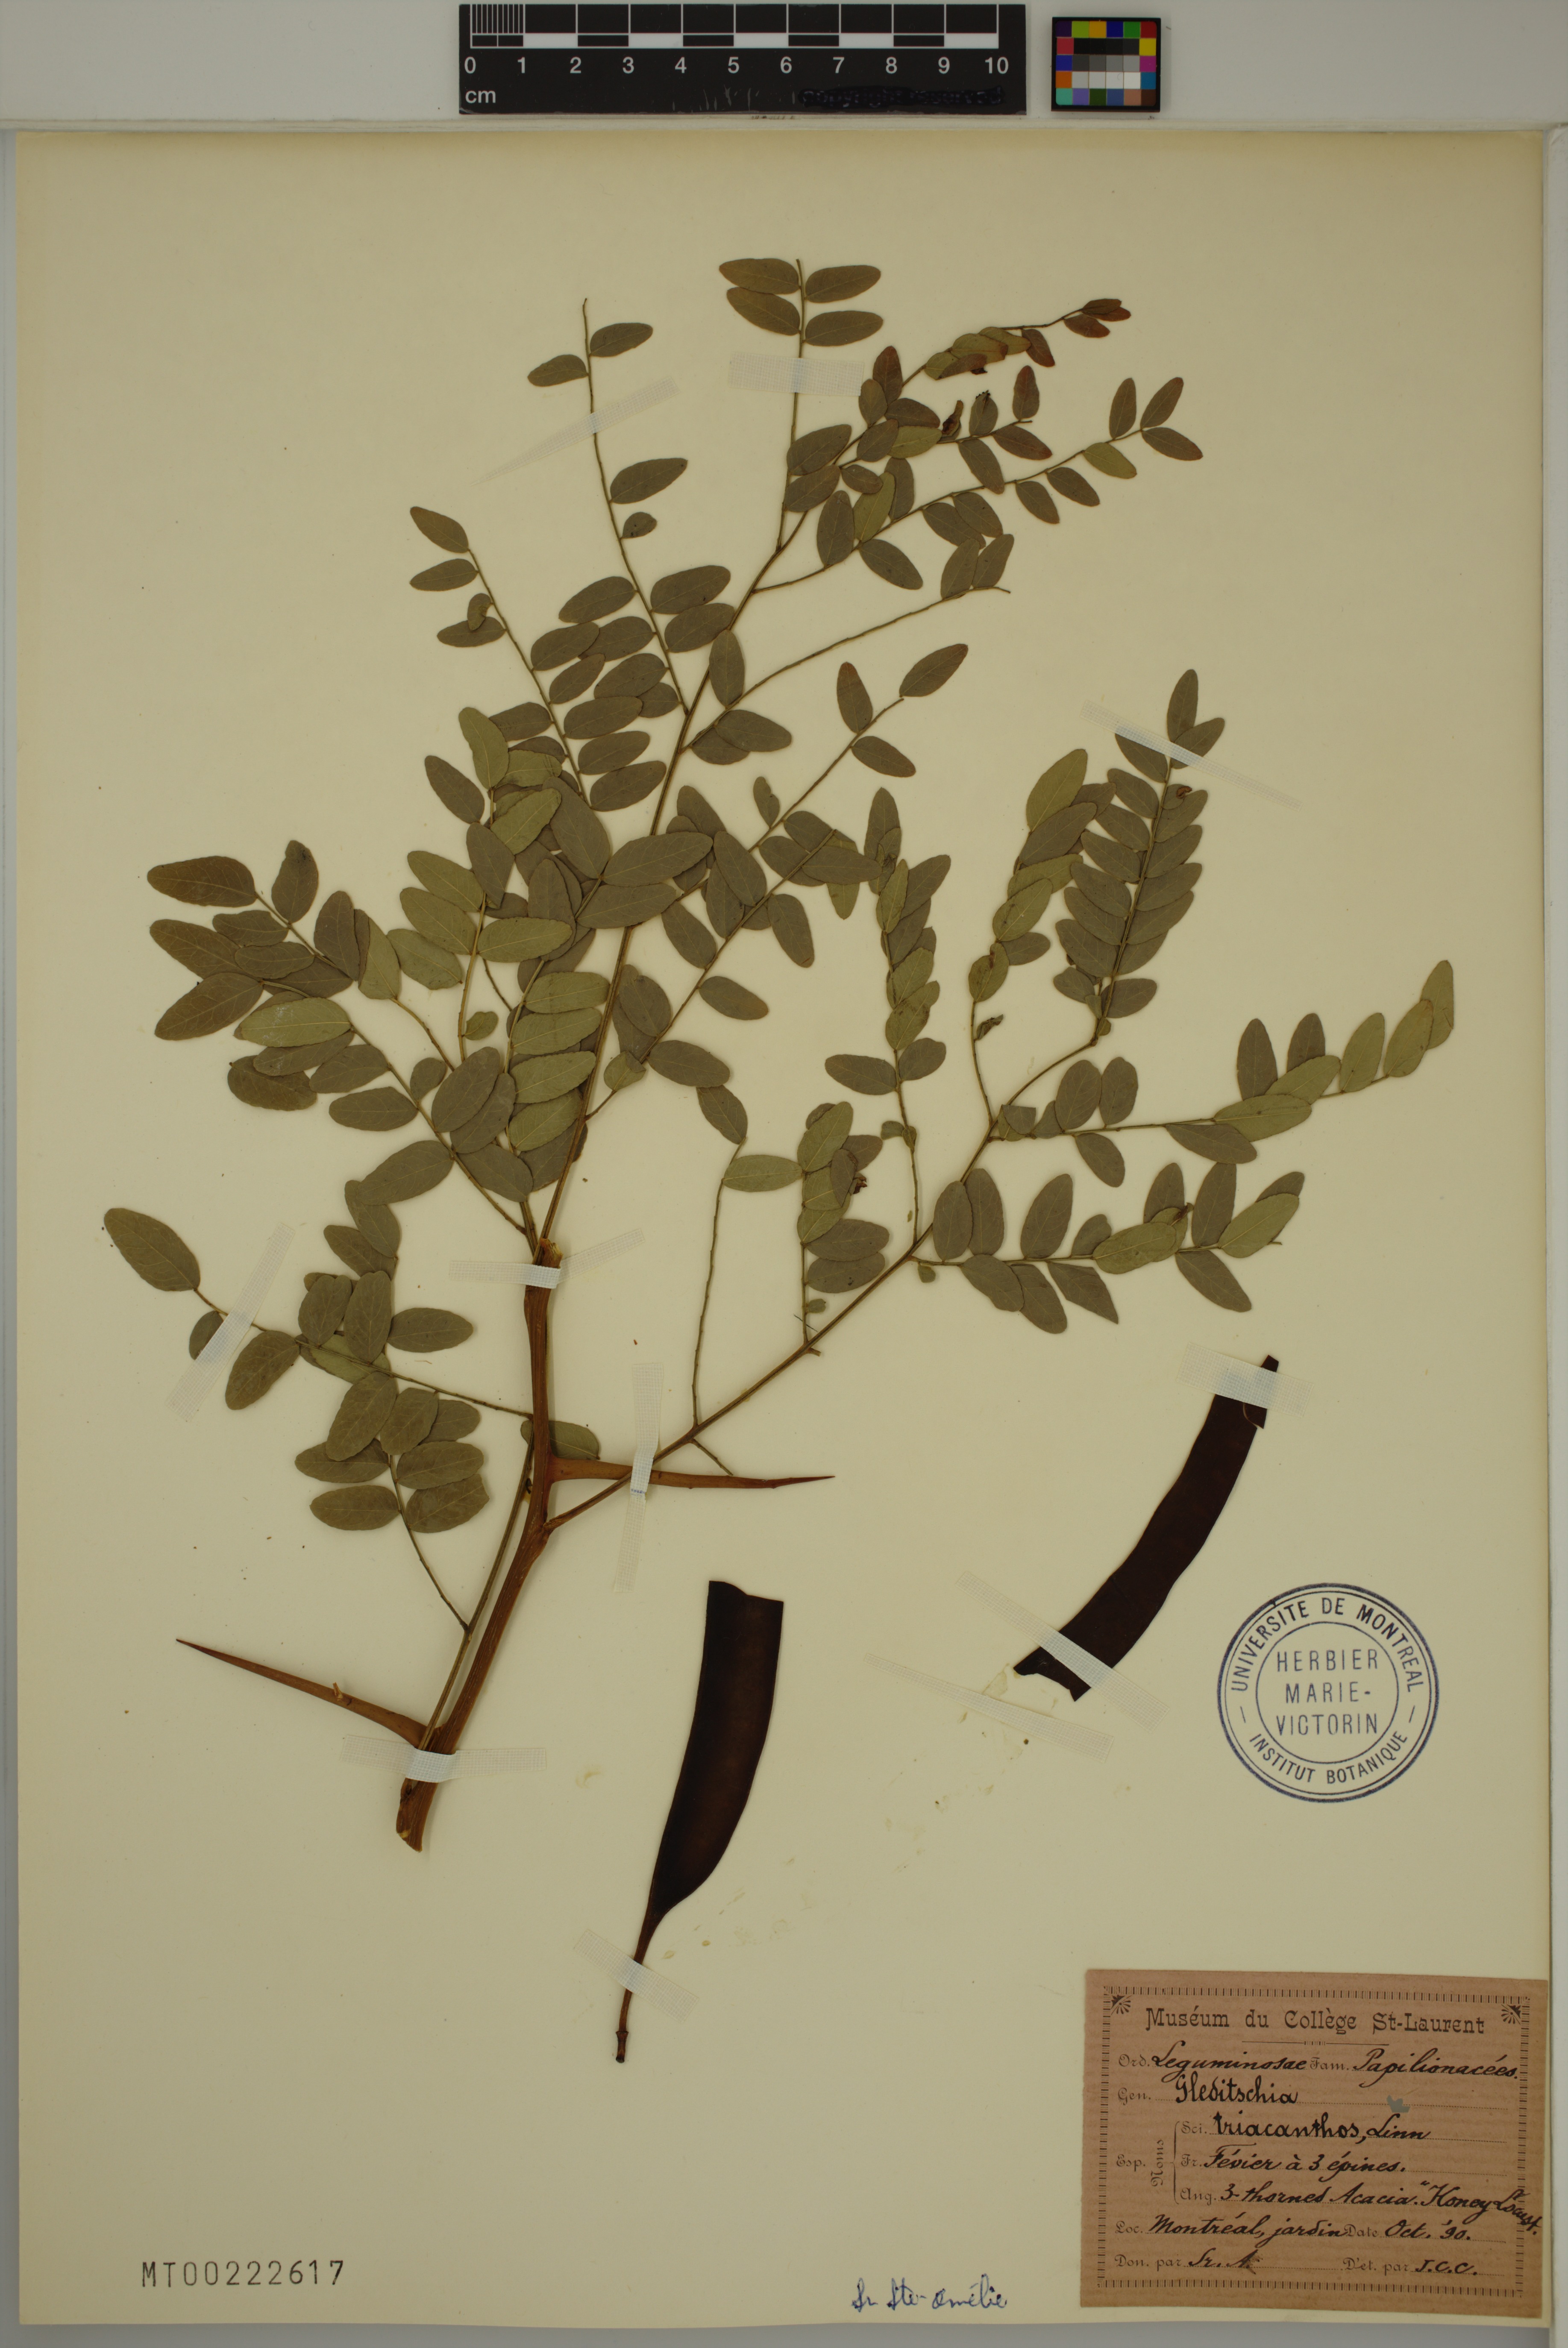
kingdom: Plantae
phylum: Tracheophyta
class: Magnoliopsida
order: Fabales
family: Fabaceae
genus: Gleditsia
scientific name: Gleditsia triacanthos
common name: Common honeylocust
